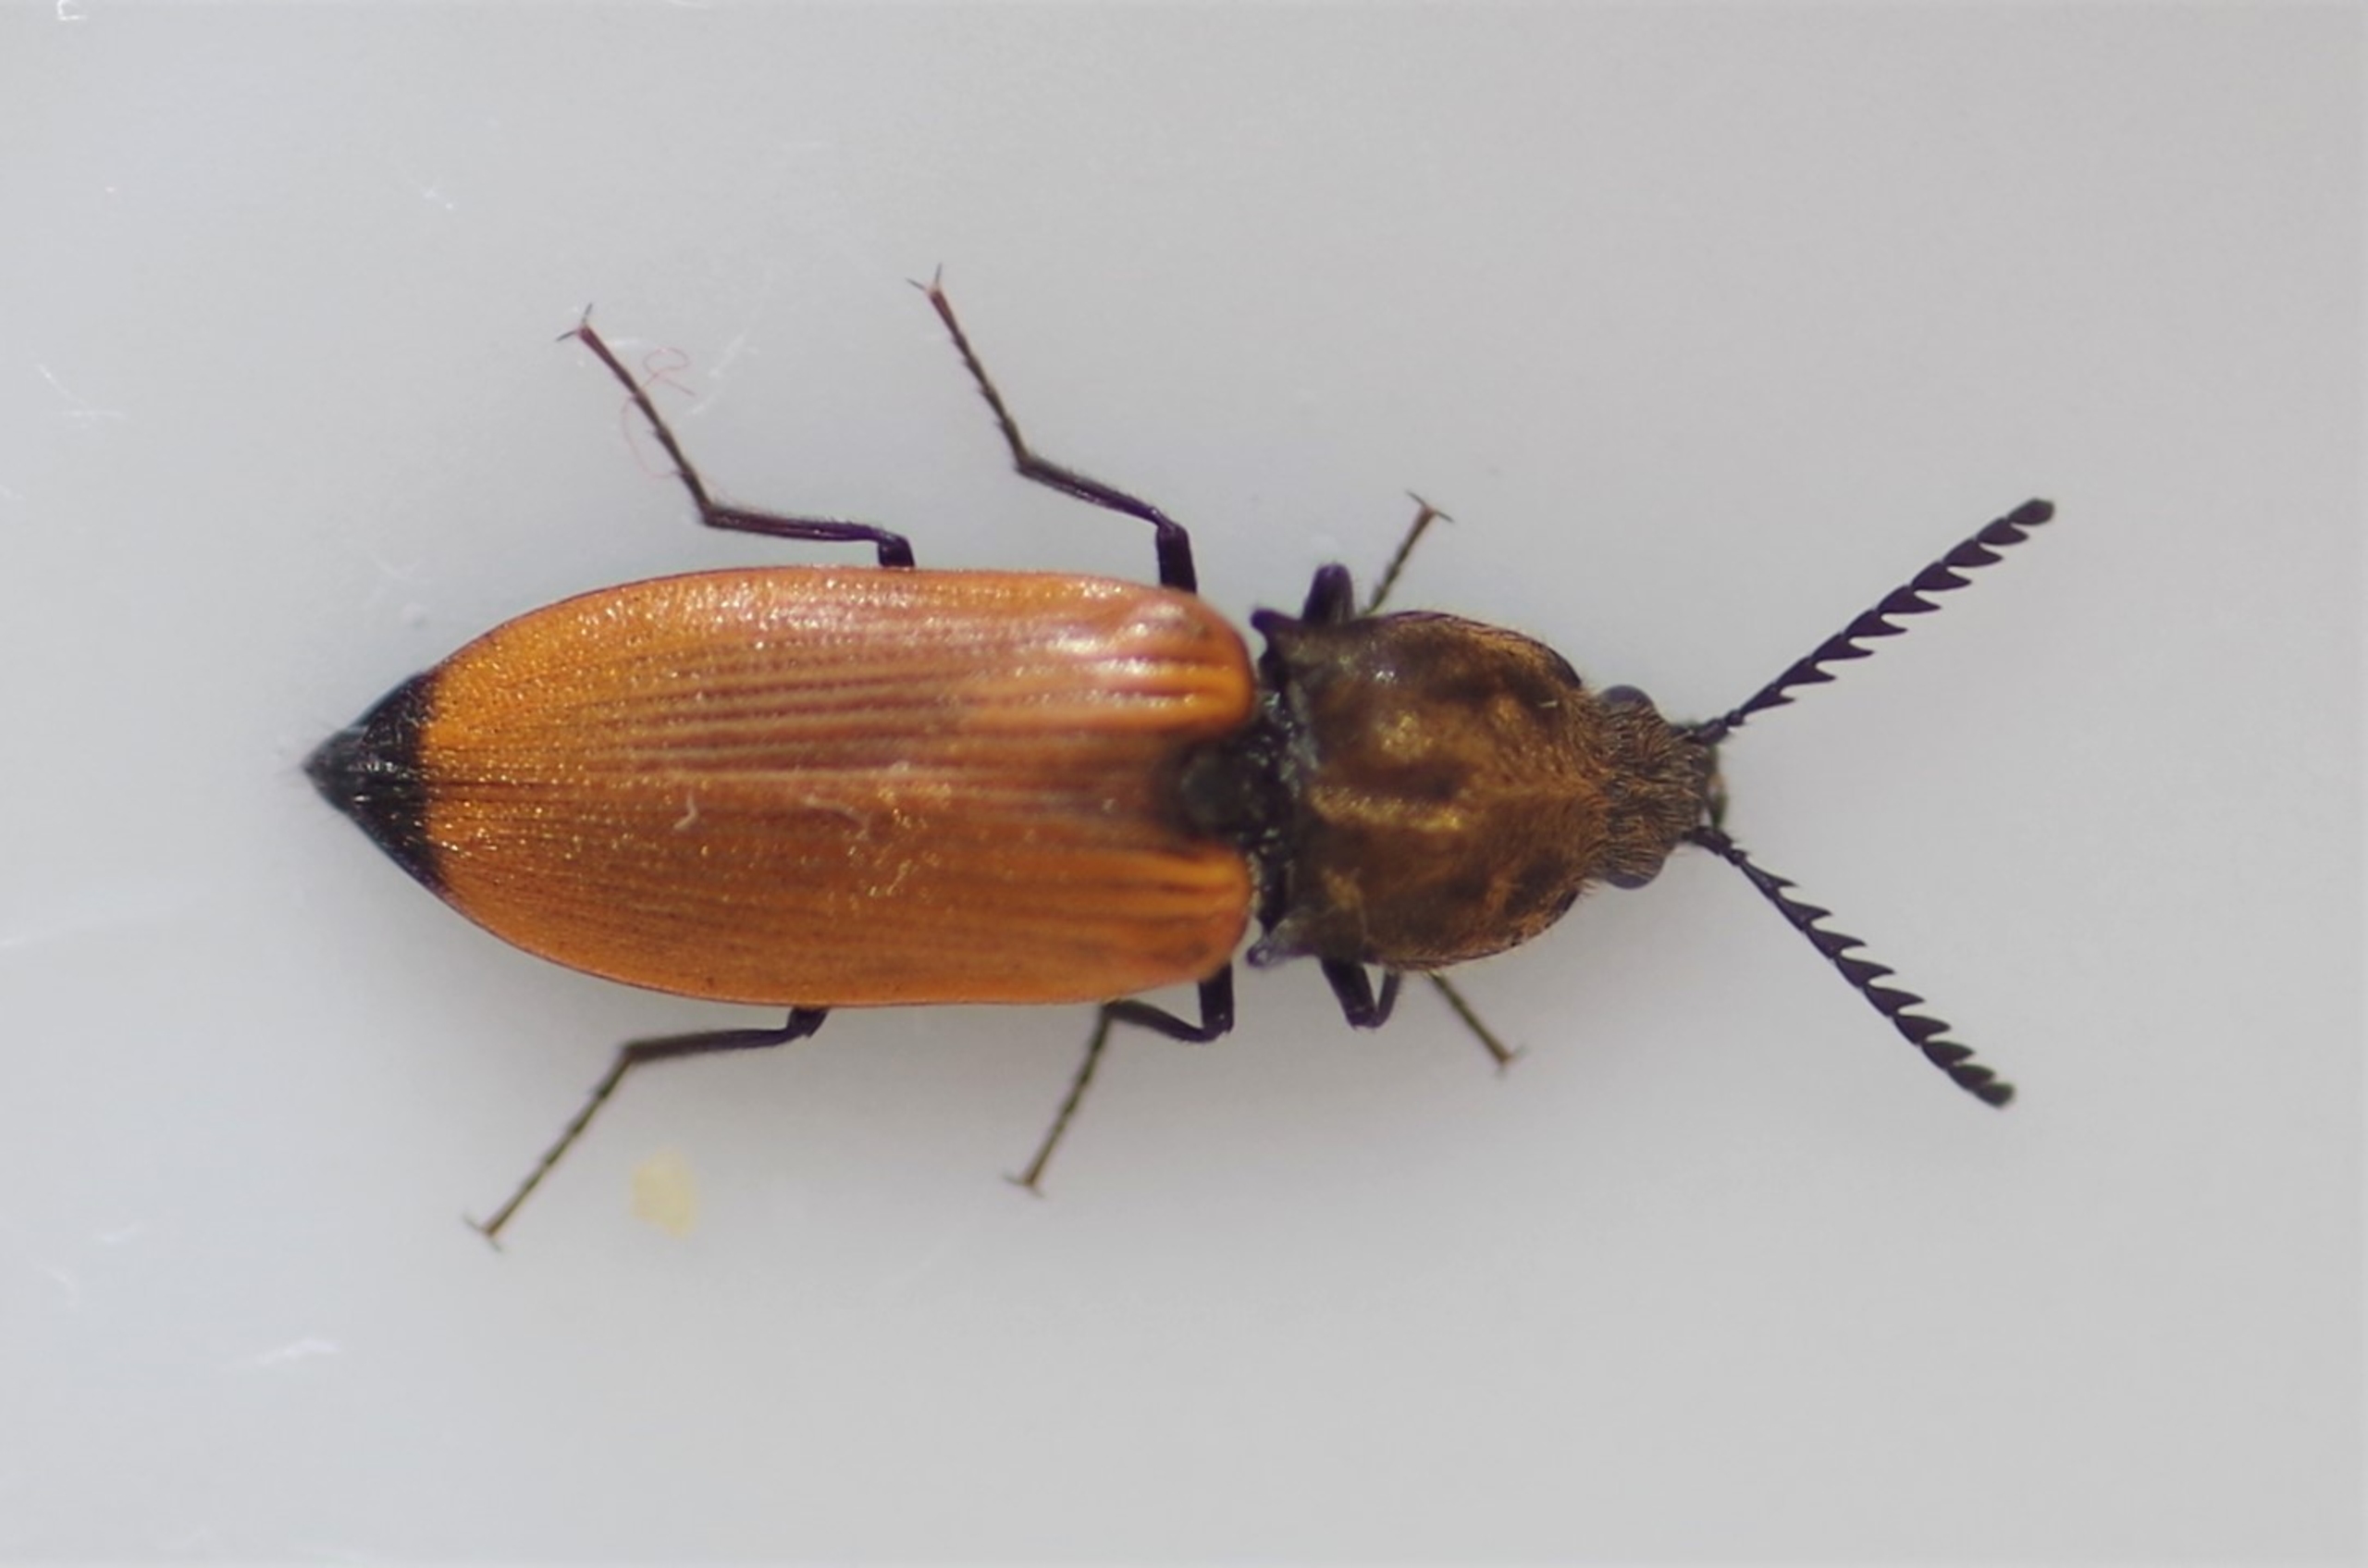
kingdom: Animalia
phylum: Arthropoda
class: Insecta
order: Coleoptera
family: Elateridae
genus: Anostirus
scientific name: Anostirus castaneus
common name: Brungul kamsmælder
